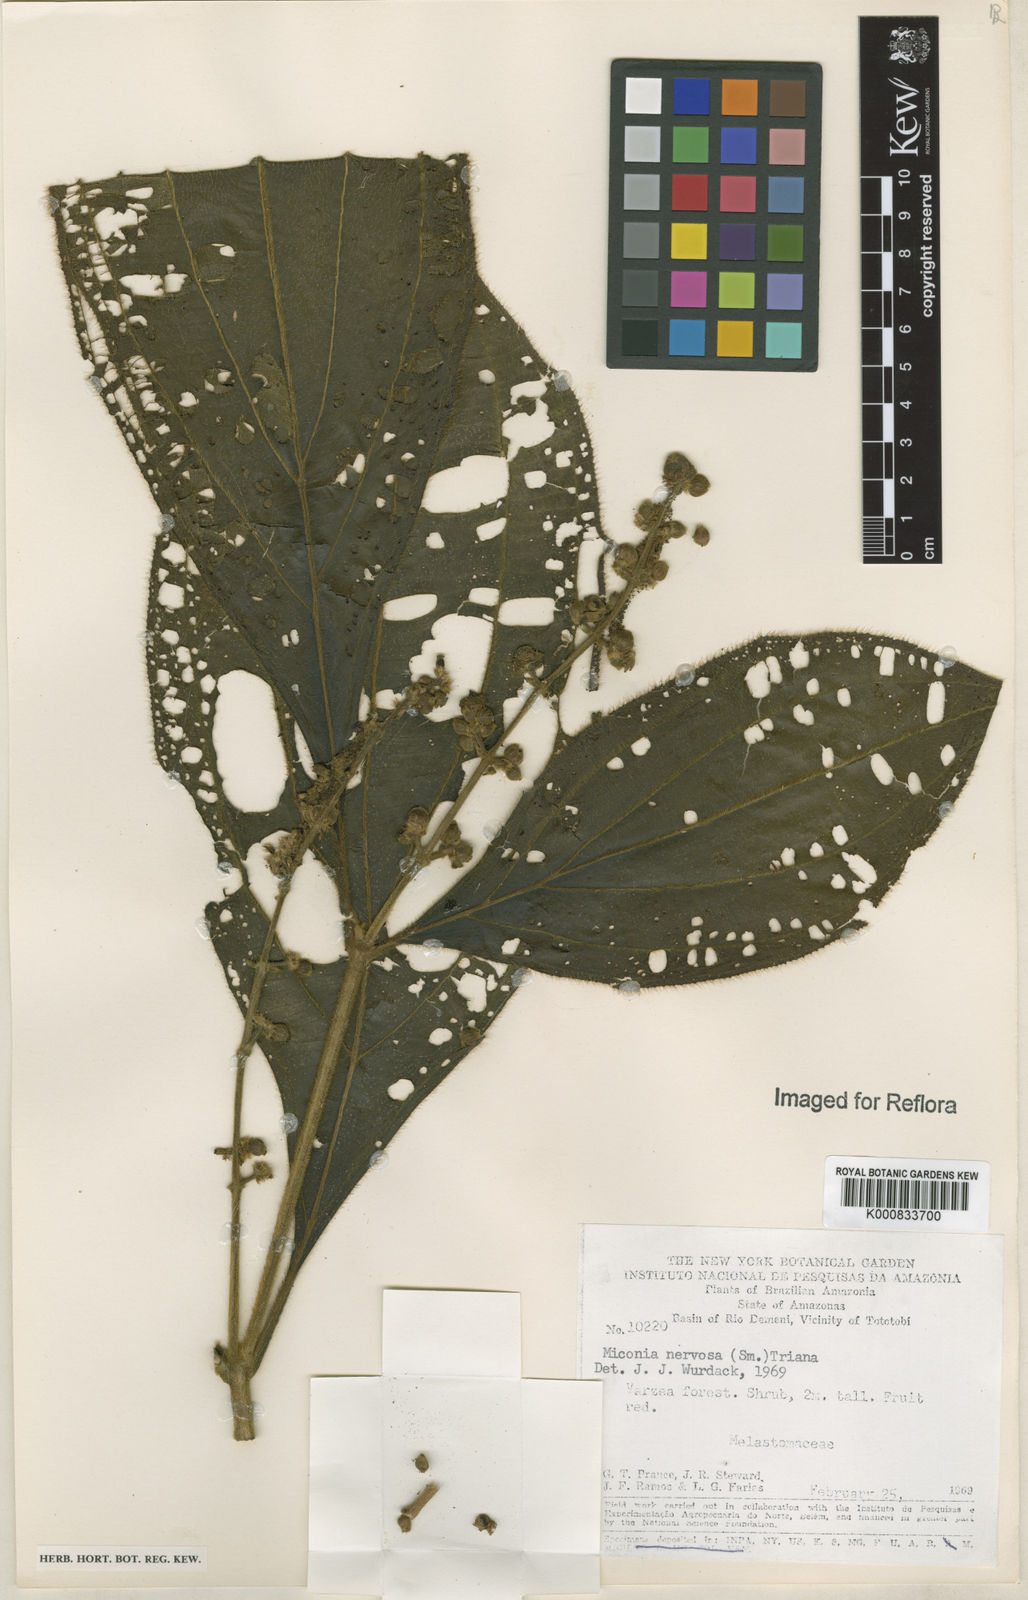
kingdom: Plantae
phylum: Tracheophyta
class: Magnoliopsida
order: Myrtales
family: Melastomataceae
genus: Miconia
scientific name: Miconia nervosa
